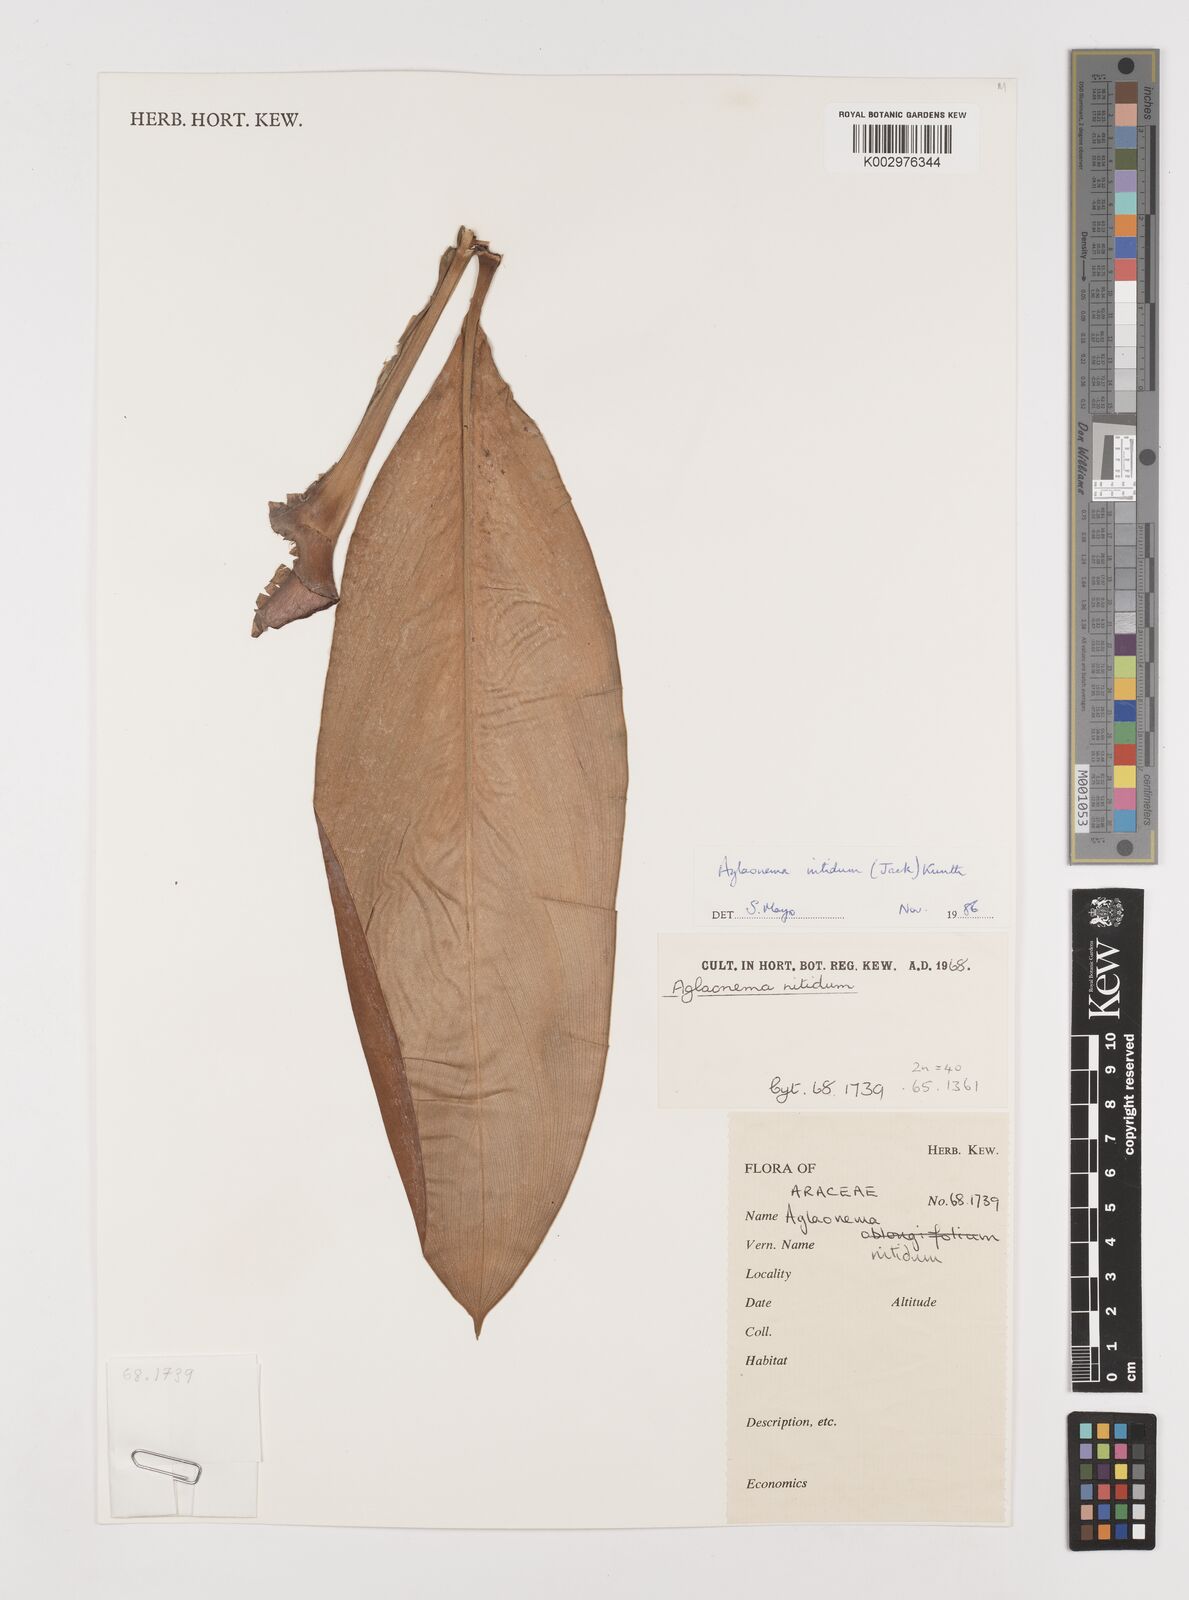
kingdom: Plantae
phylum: Tracheophyta
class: Liliopsida
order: Alismatales
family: Araceae
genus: Aglaonema
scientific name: Aglaonema nitidum
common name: Aglaonema aroid
